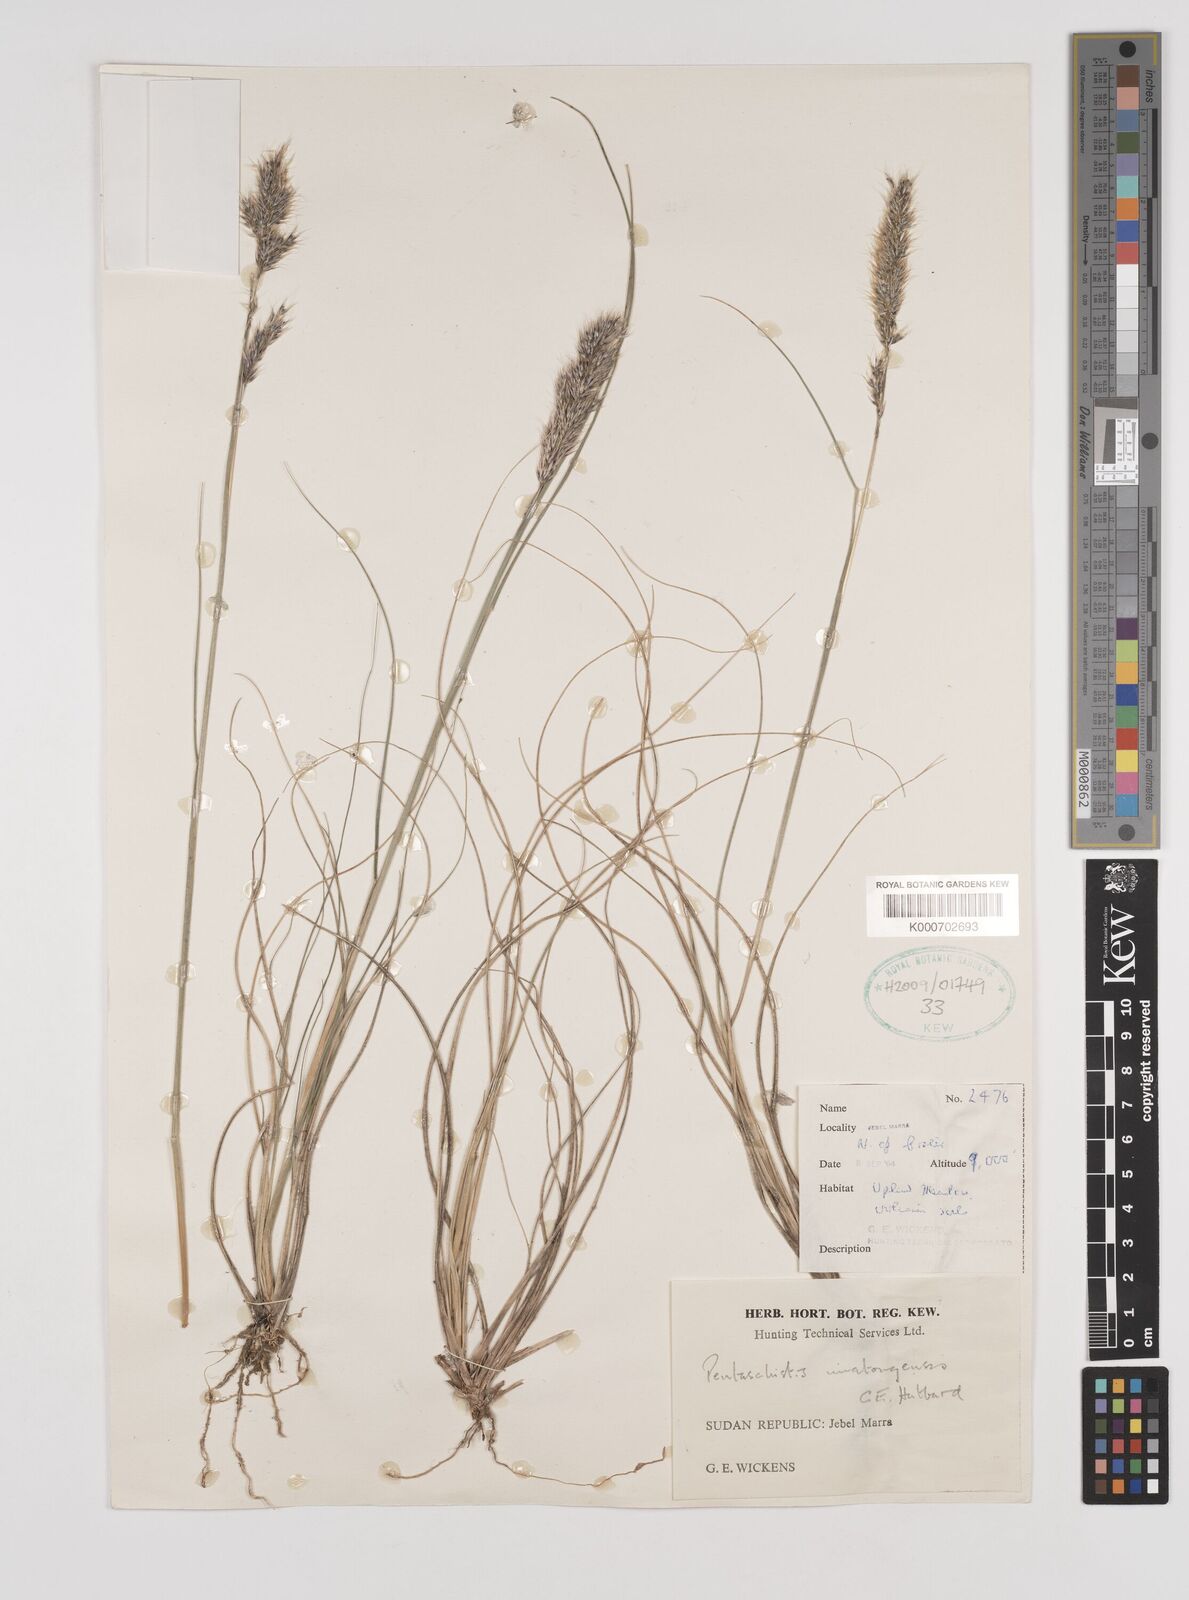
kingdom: Plantae
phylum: Tracheophyta
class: Liliopsida
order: Poales
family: Poaceae
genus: Pentameris
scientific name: Pentameris pictigluma
